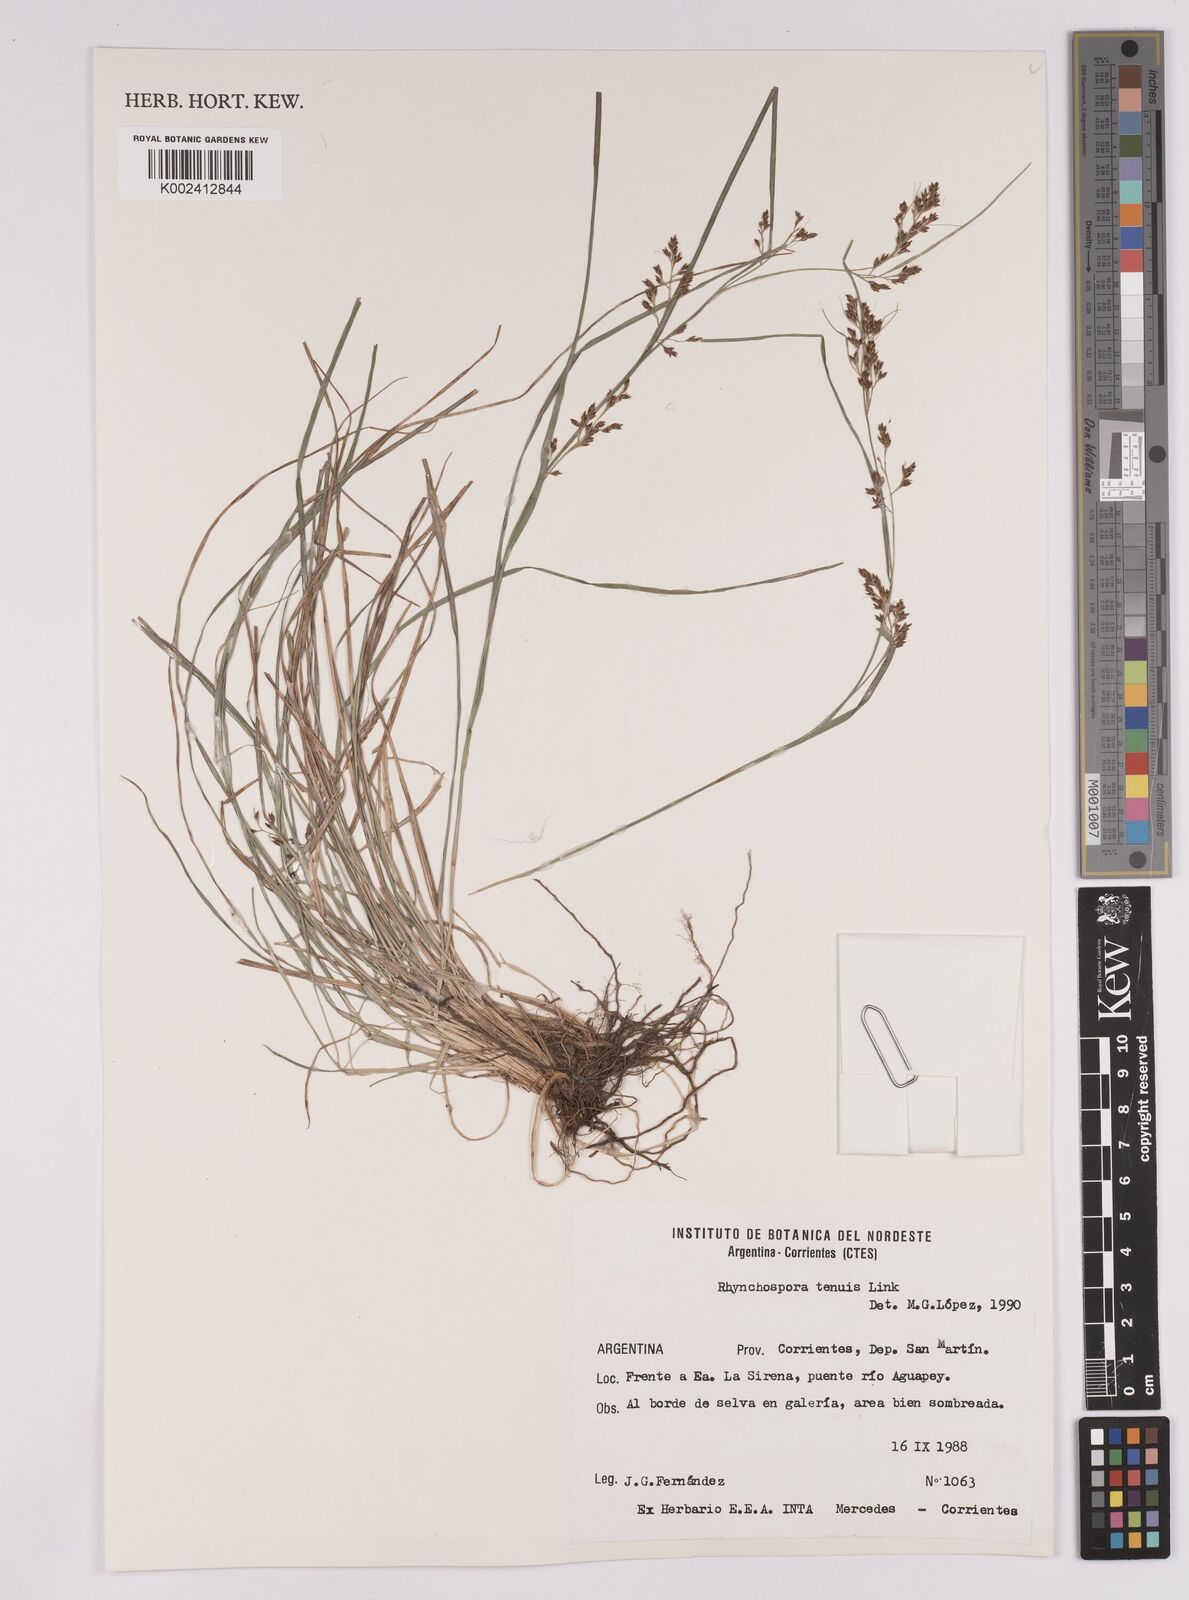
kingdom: Plantae
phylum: Tracheophyta
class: Liliopsida
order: Poales
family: Cyperaceae
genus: Rhynchospora
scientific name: Rhynchospora tenuis
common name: Quill beaksedge
